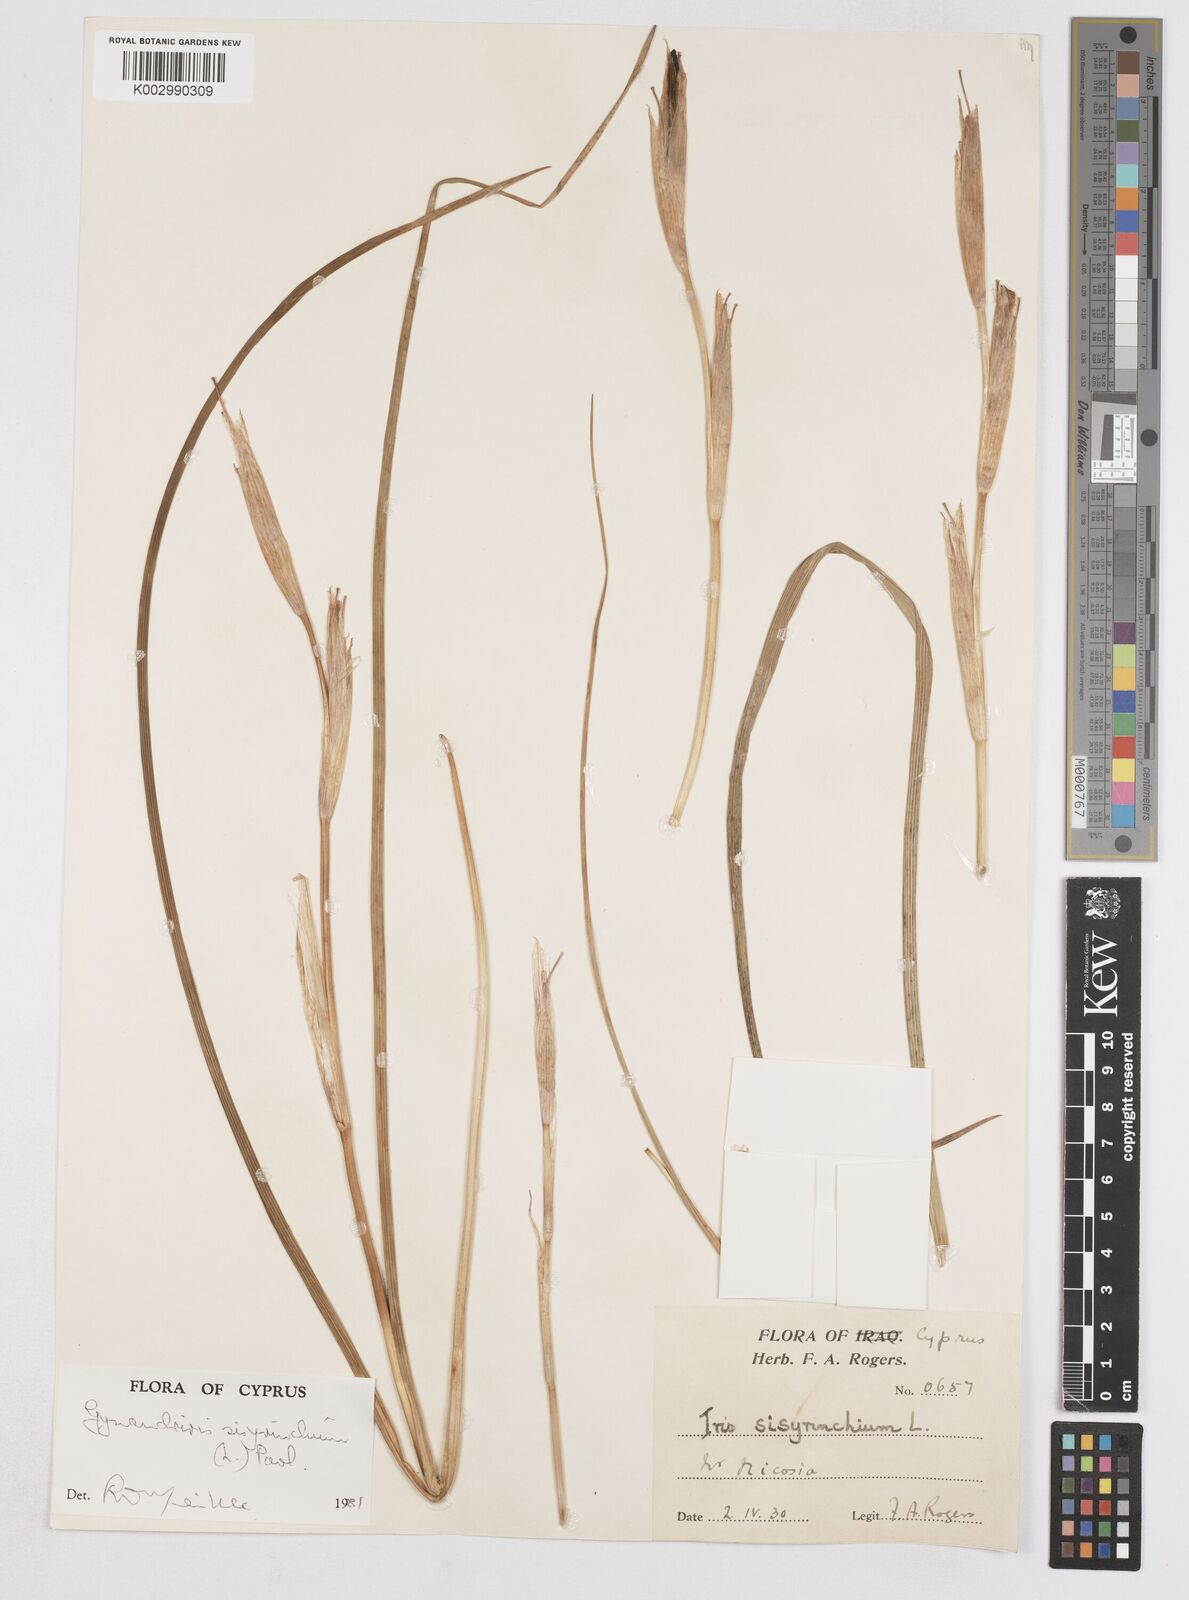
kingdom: Plantae
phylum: Tracheophyta
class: Liliopsida
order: Asparagales
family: Iridaceae
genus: Moraea
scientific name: Moraea sisyrinchium
